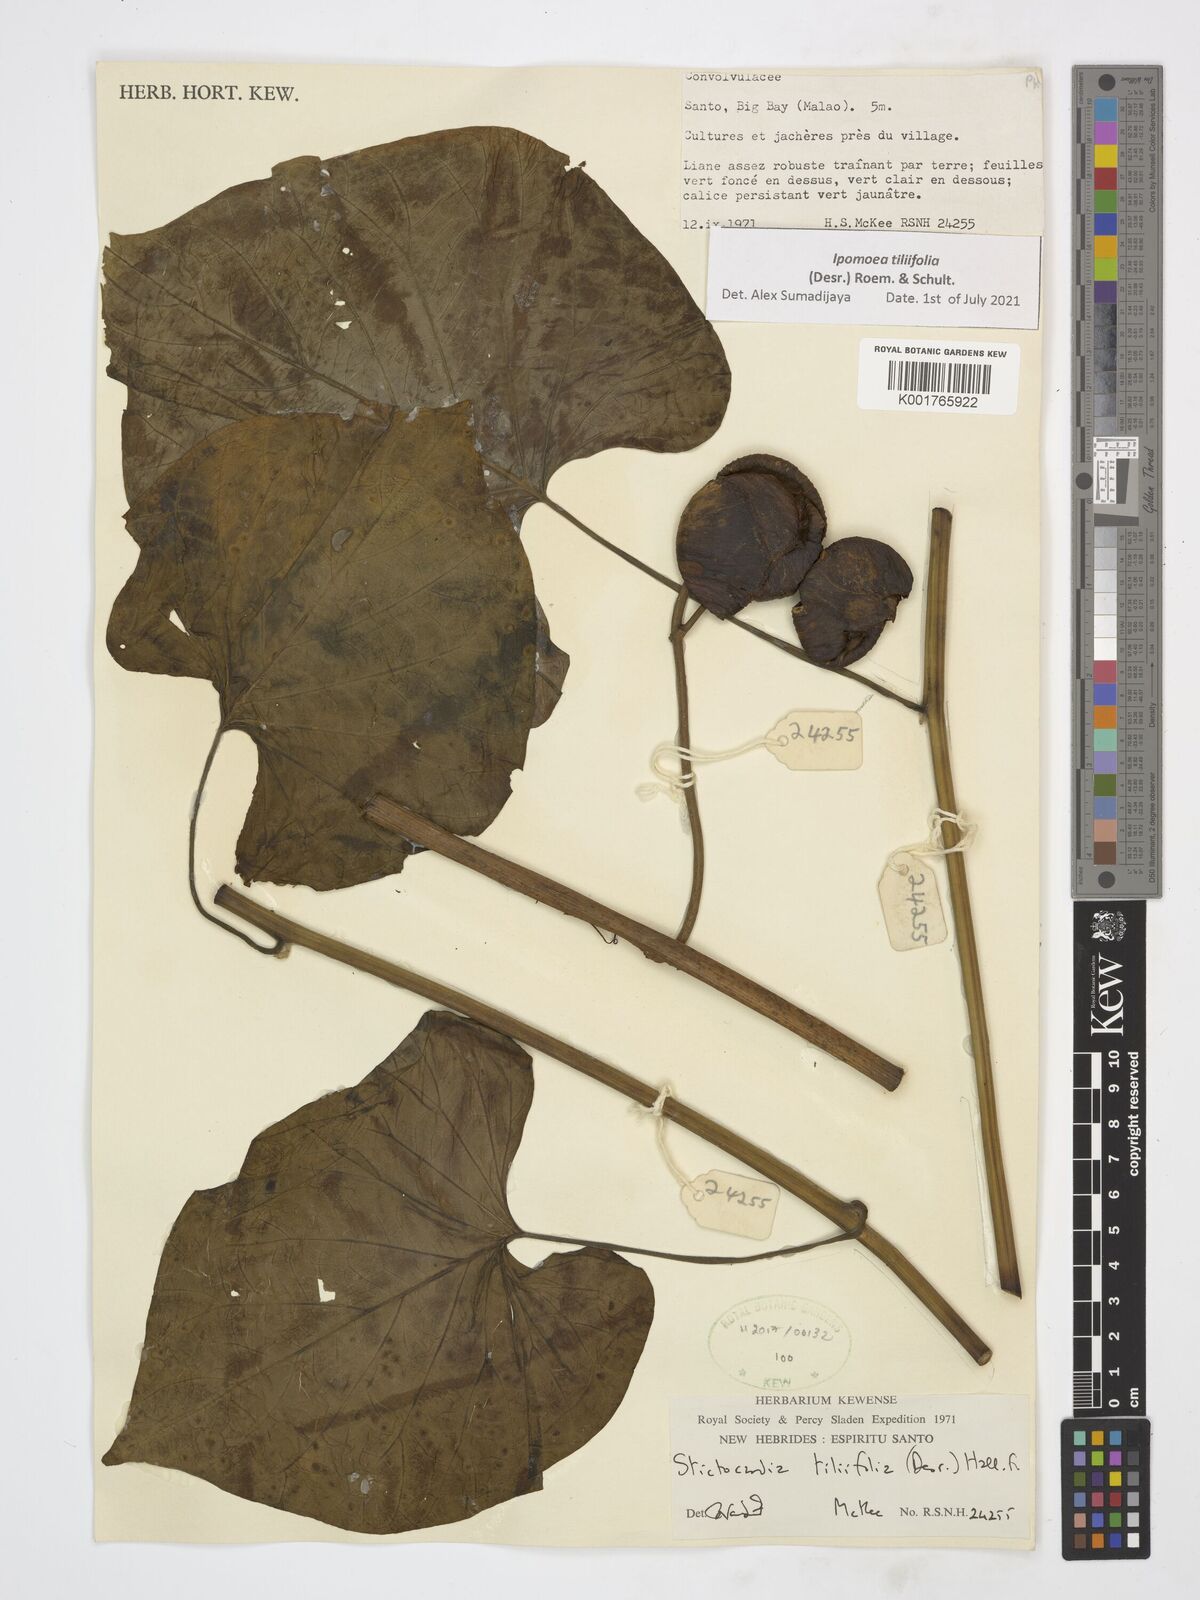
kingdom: Plantae
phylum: Tracheophyta
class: Magnoliopsida
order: Solanales
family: Convolvulaceae
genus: Stictocardia
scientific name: Stictocardia tiliifolia
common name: Spottedheart
